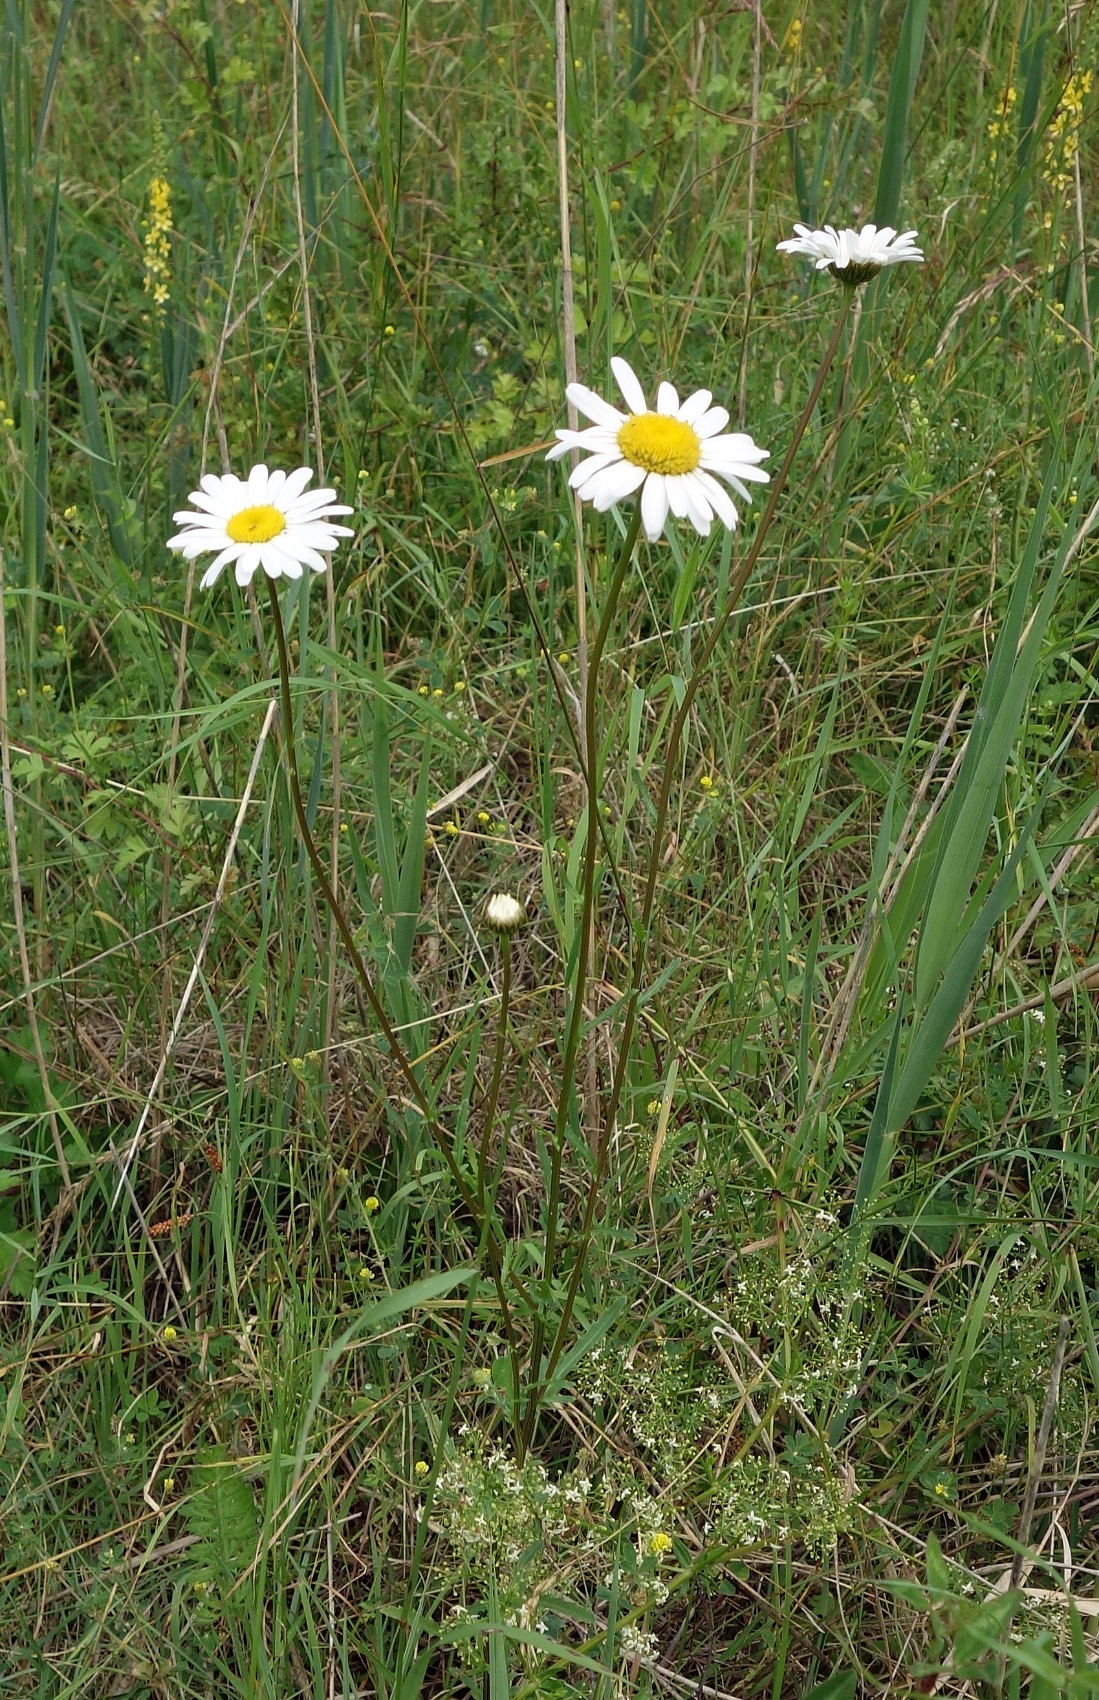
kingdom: Plantae
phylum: Tracheophyta
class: Magnoliopsida
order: Asterales
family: Asteraceae
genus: Leucanthemum
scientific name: Leucanthemum vulgare
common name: Hvid okseøje
